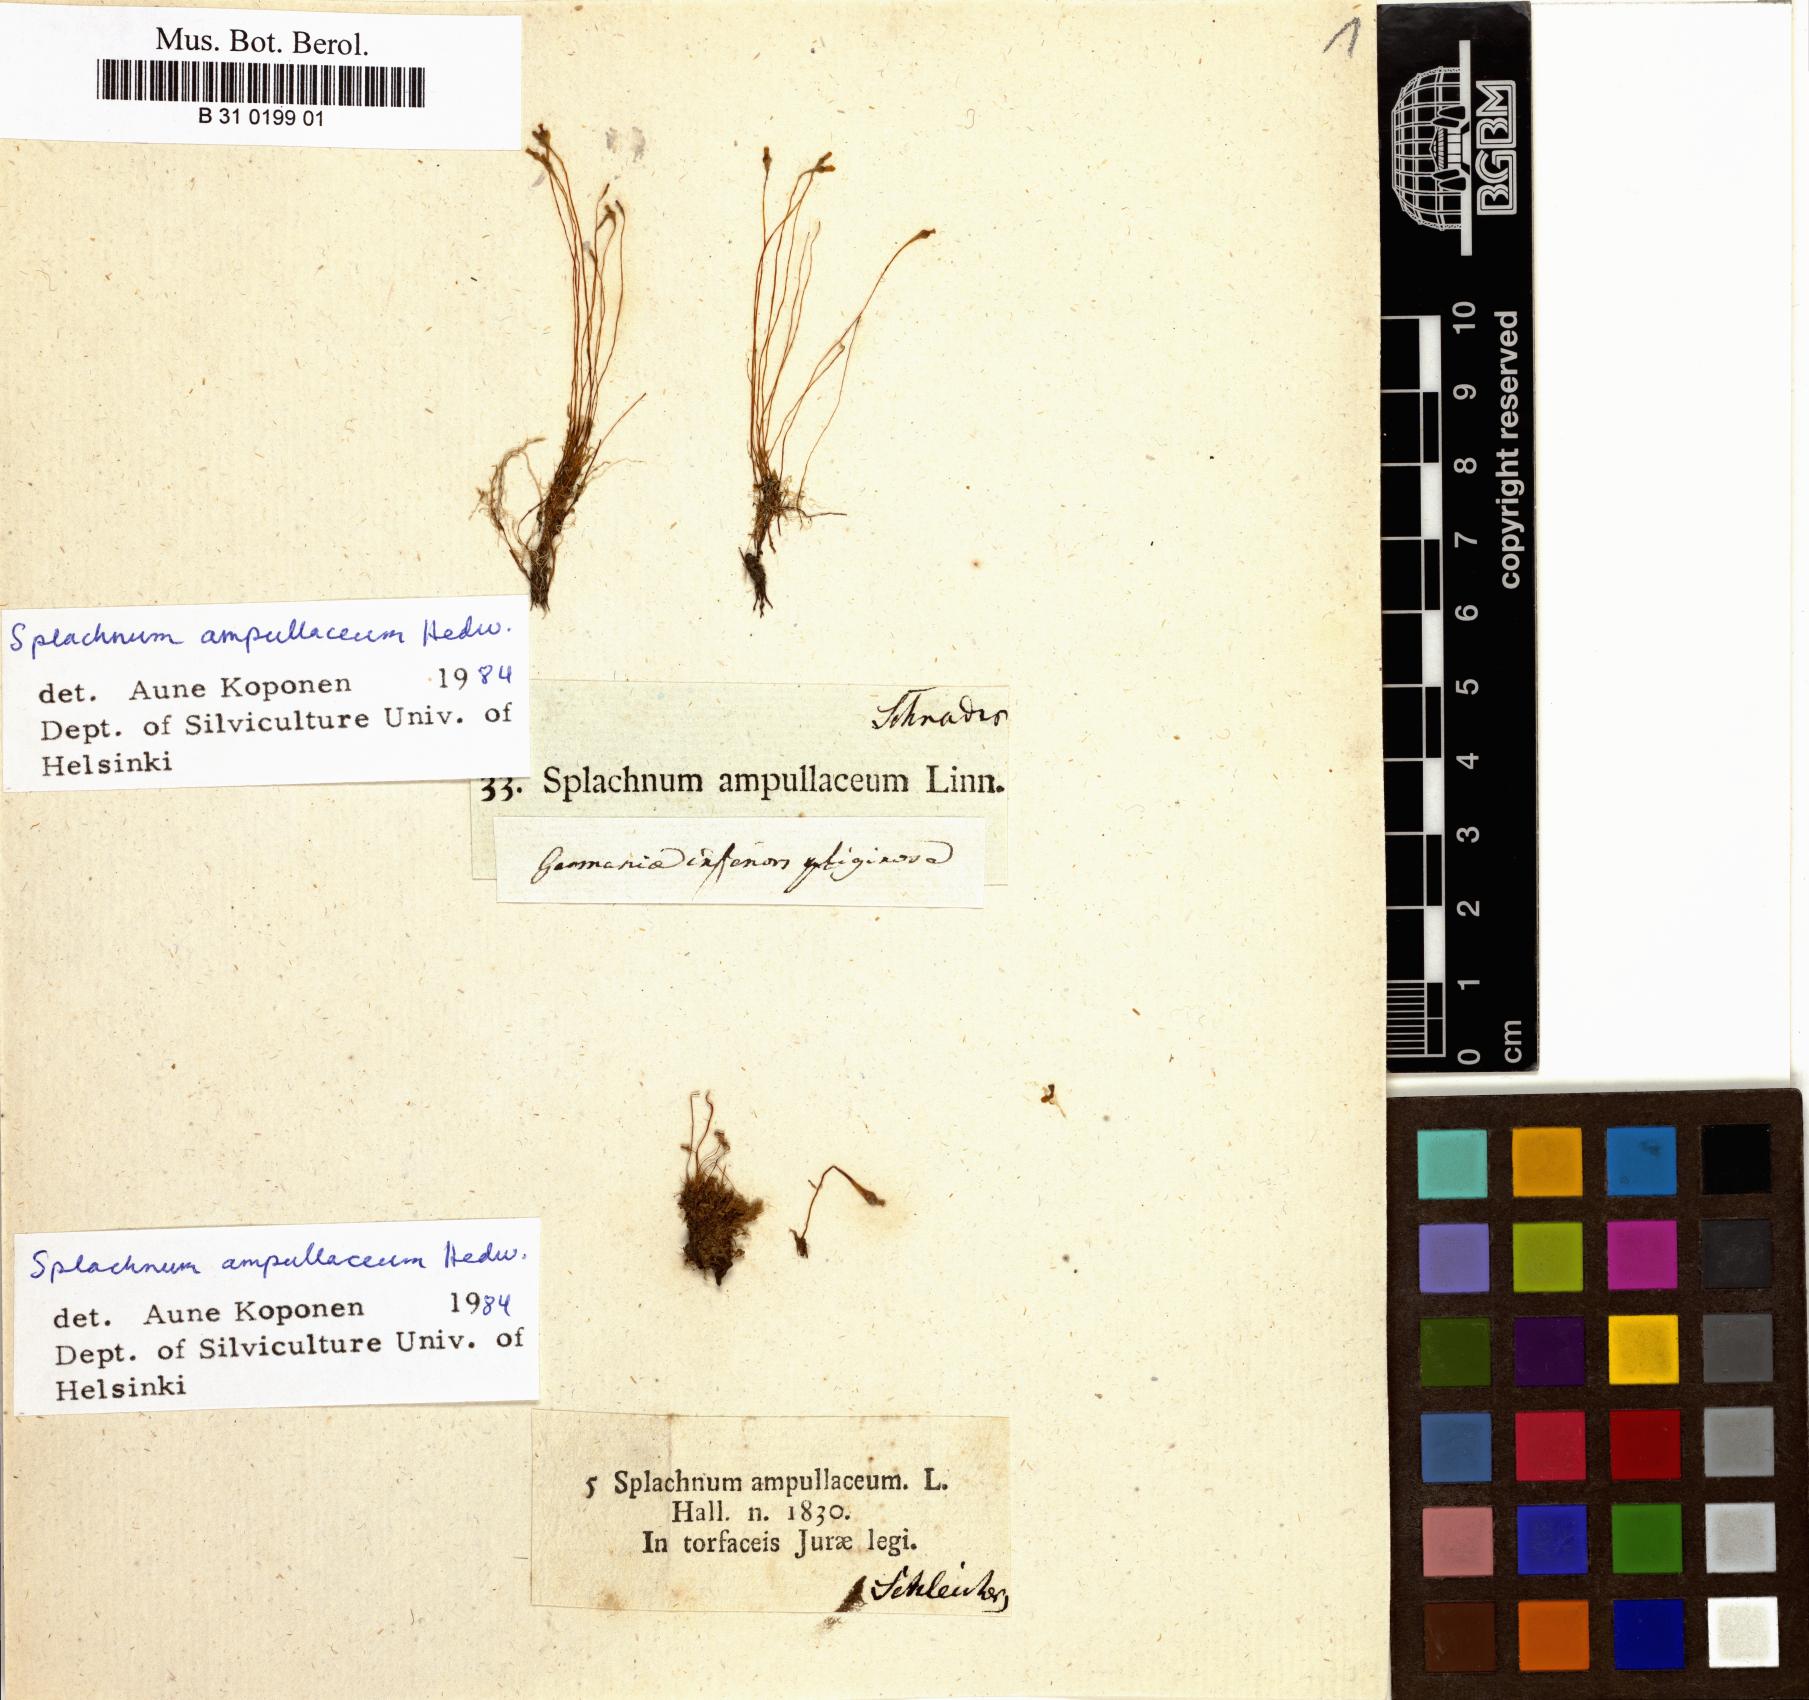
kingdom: Plantae
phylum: Bryophyta
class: Bryopsida
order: Splachnales
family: Splachnaceae
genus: Splachnum
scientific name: Splachnum ampullaceum
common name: Cruet dung moss
